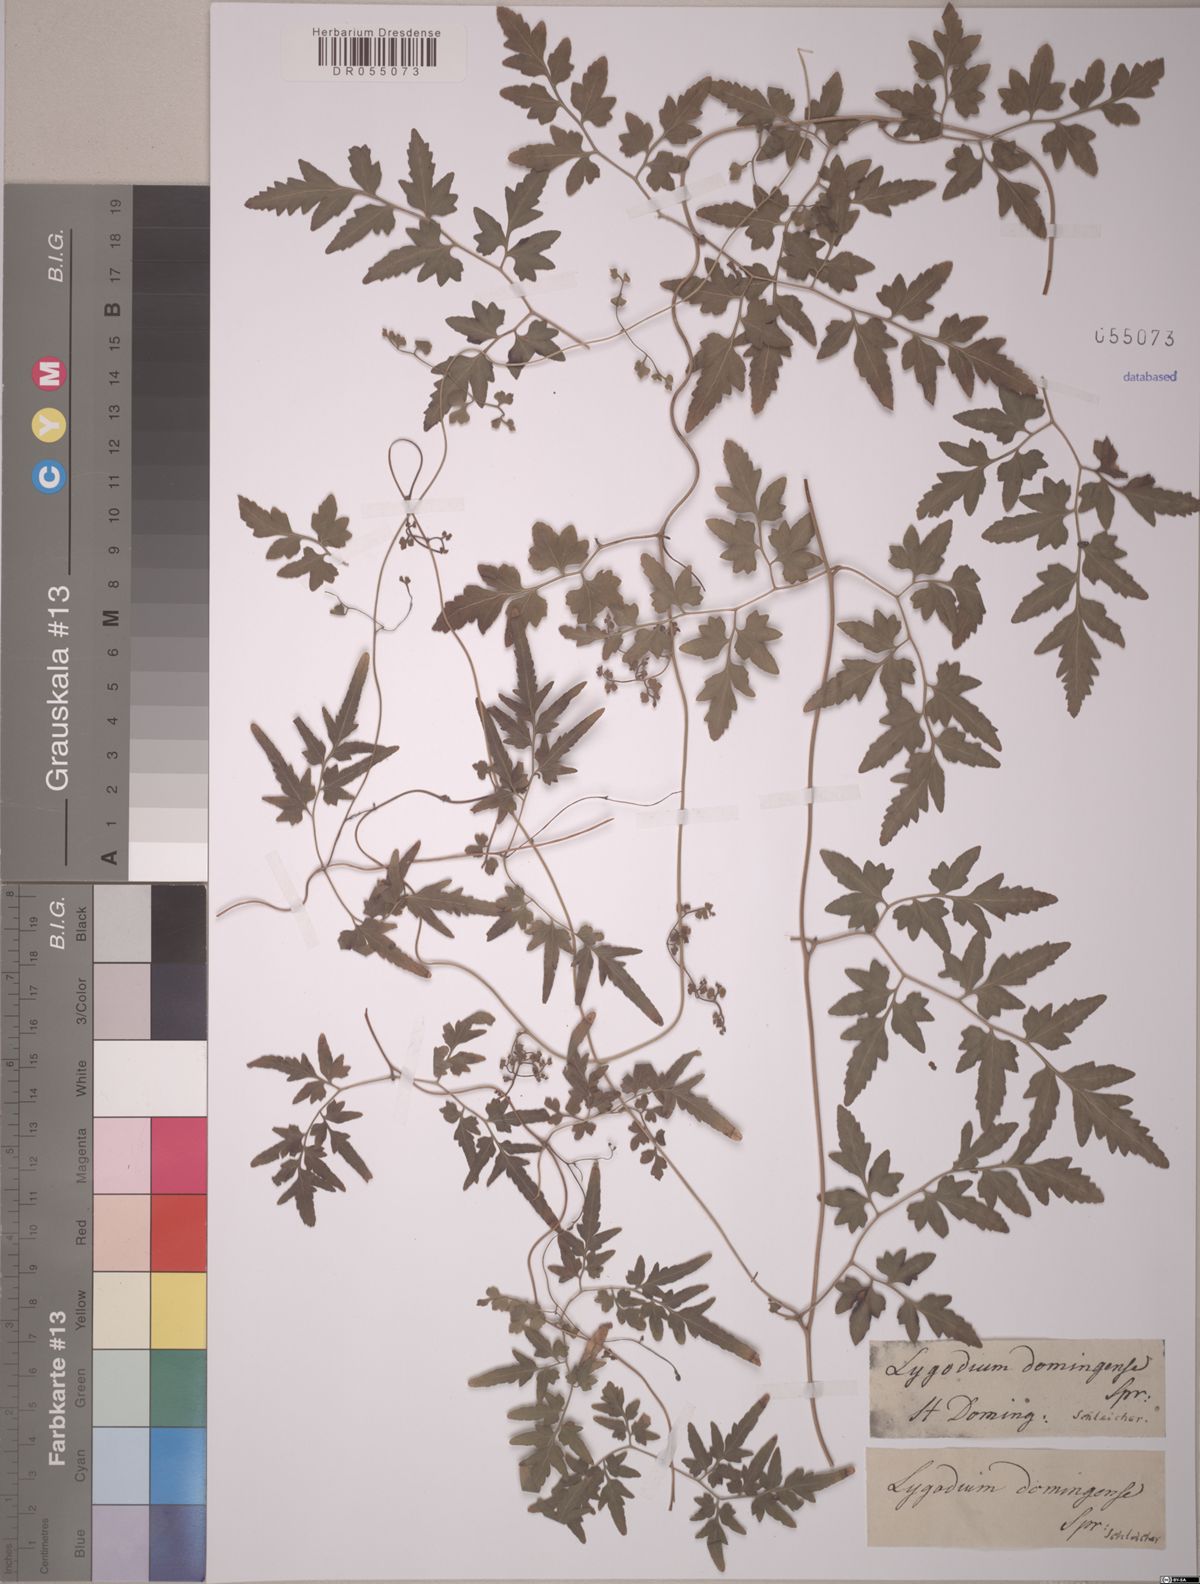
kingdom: Plantae
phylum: Tracheophyta
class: Polypodiopsida
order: Schizaeales
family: Lygodiaceae
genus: Lygodium
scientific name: Lygodium japonicum
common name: Japanese climbing fern
